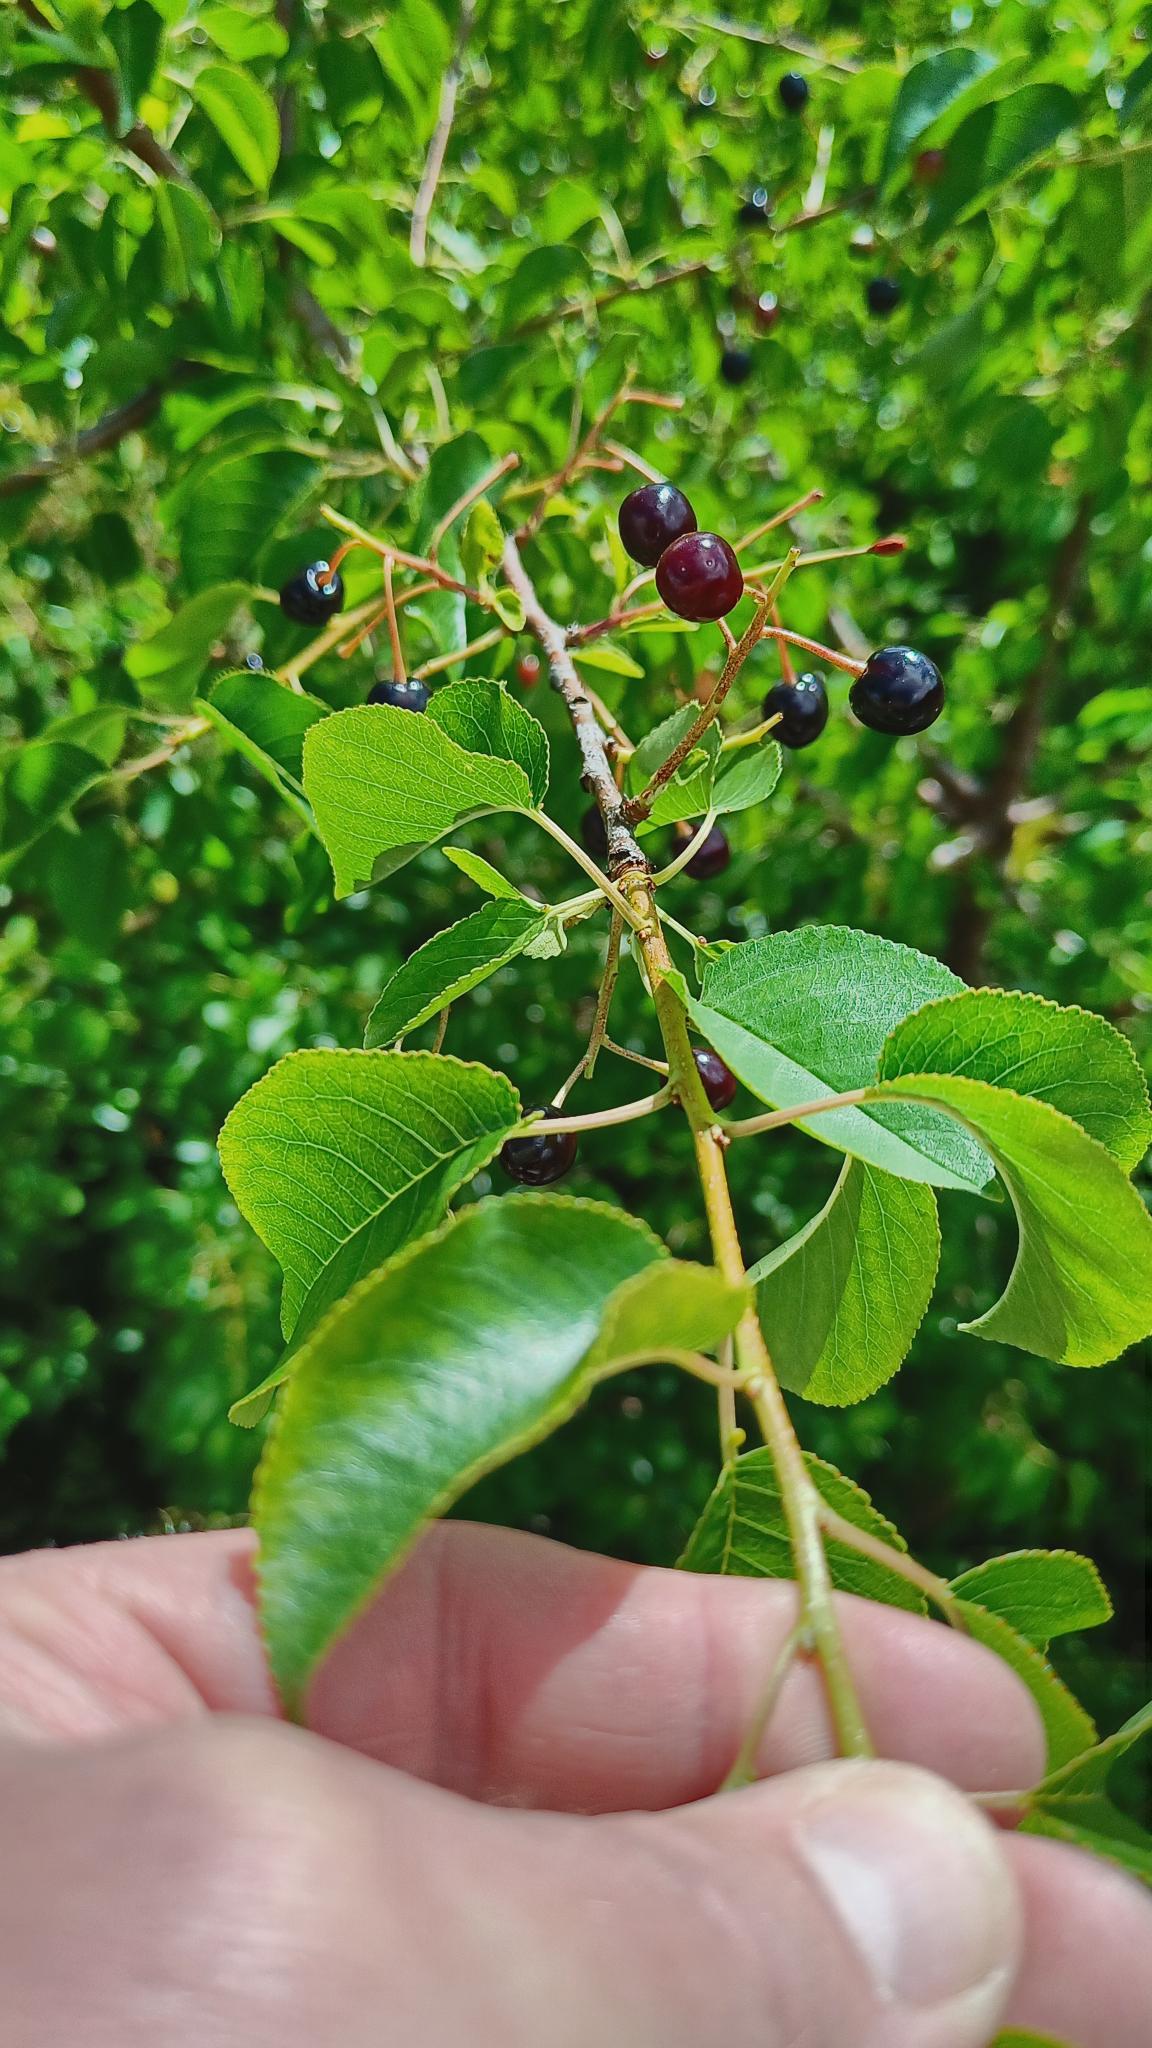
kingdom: Plantae
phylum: Tracheophyta
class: Magnoliopsida
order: Rosales
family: Rosaceae
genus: Prunus
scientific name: Prunus mahaleb
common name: Weichsel
